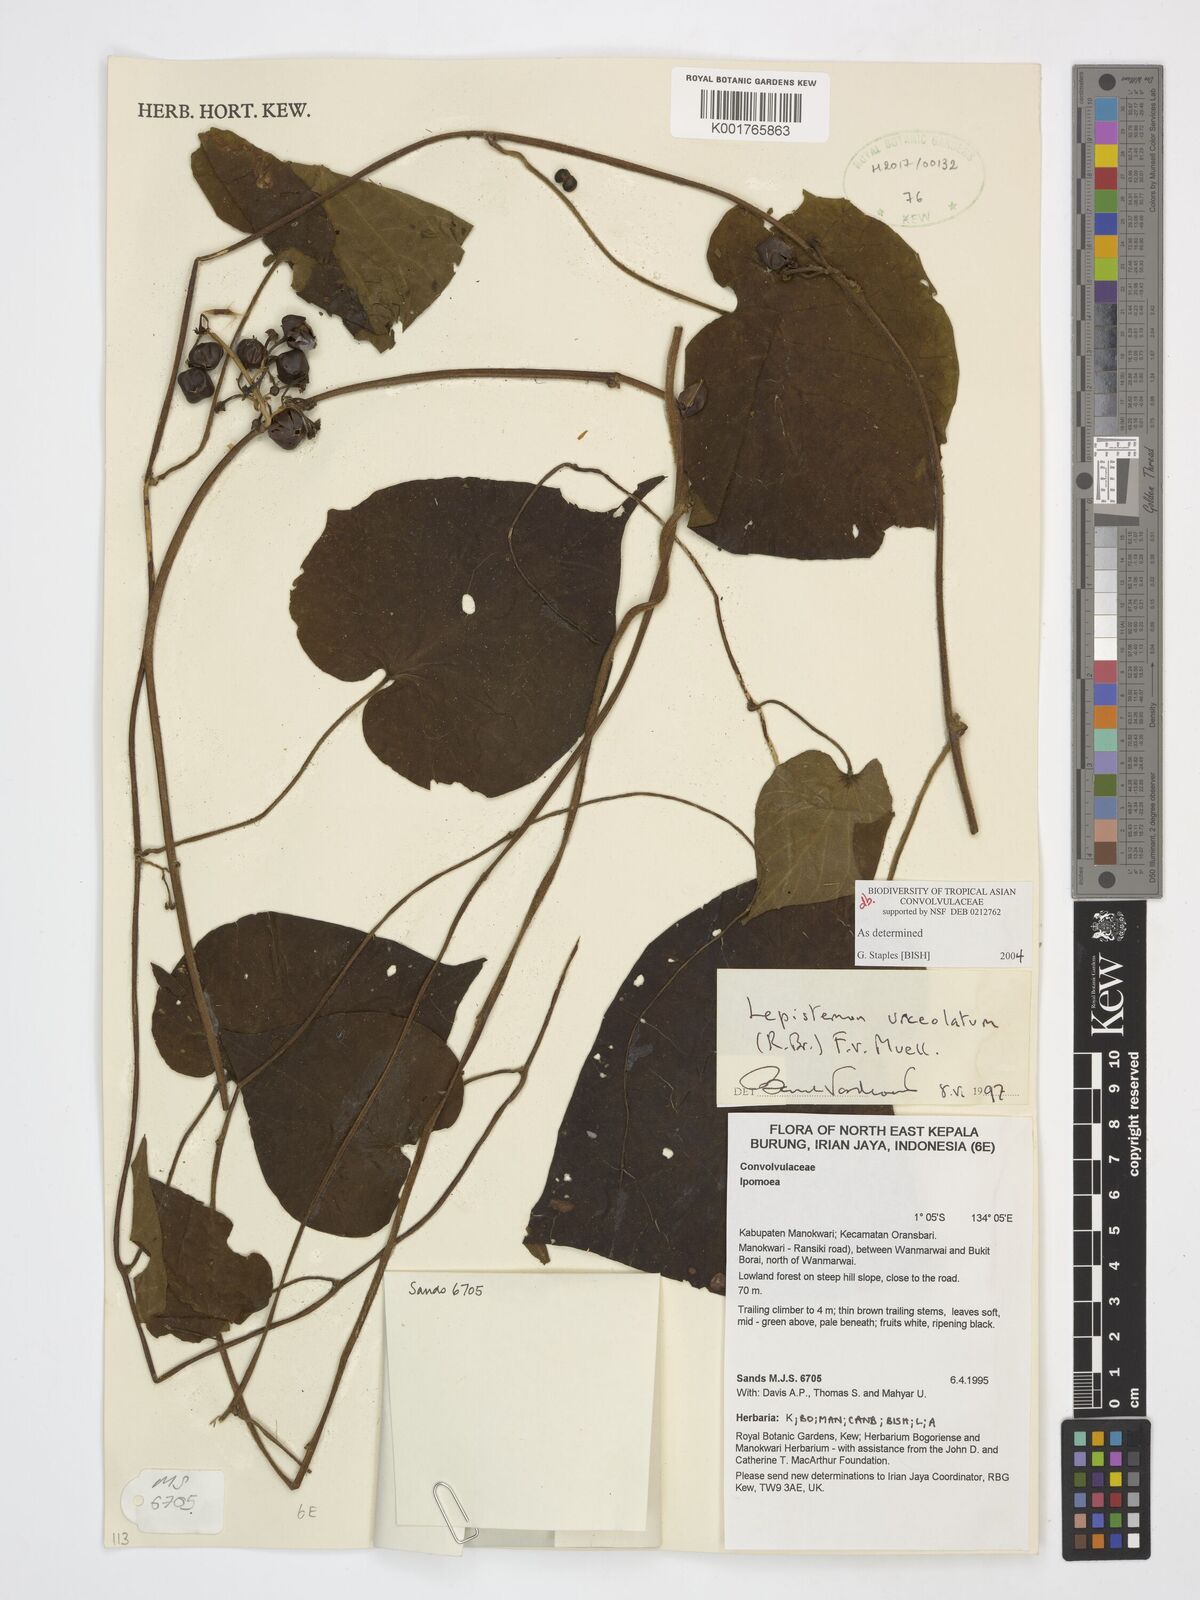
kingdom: Plantae
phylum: Tracheophyta
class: Magnoliopsida
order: Solanales
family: Convolvulaceae
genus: Lepistemon
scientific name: Lepistemon urceolatus
